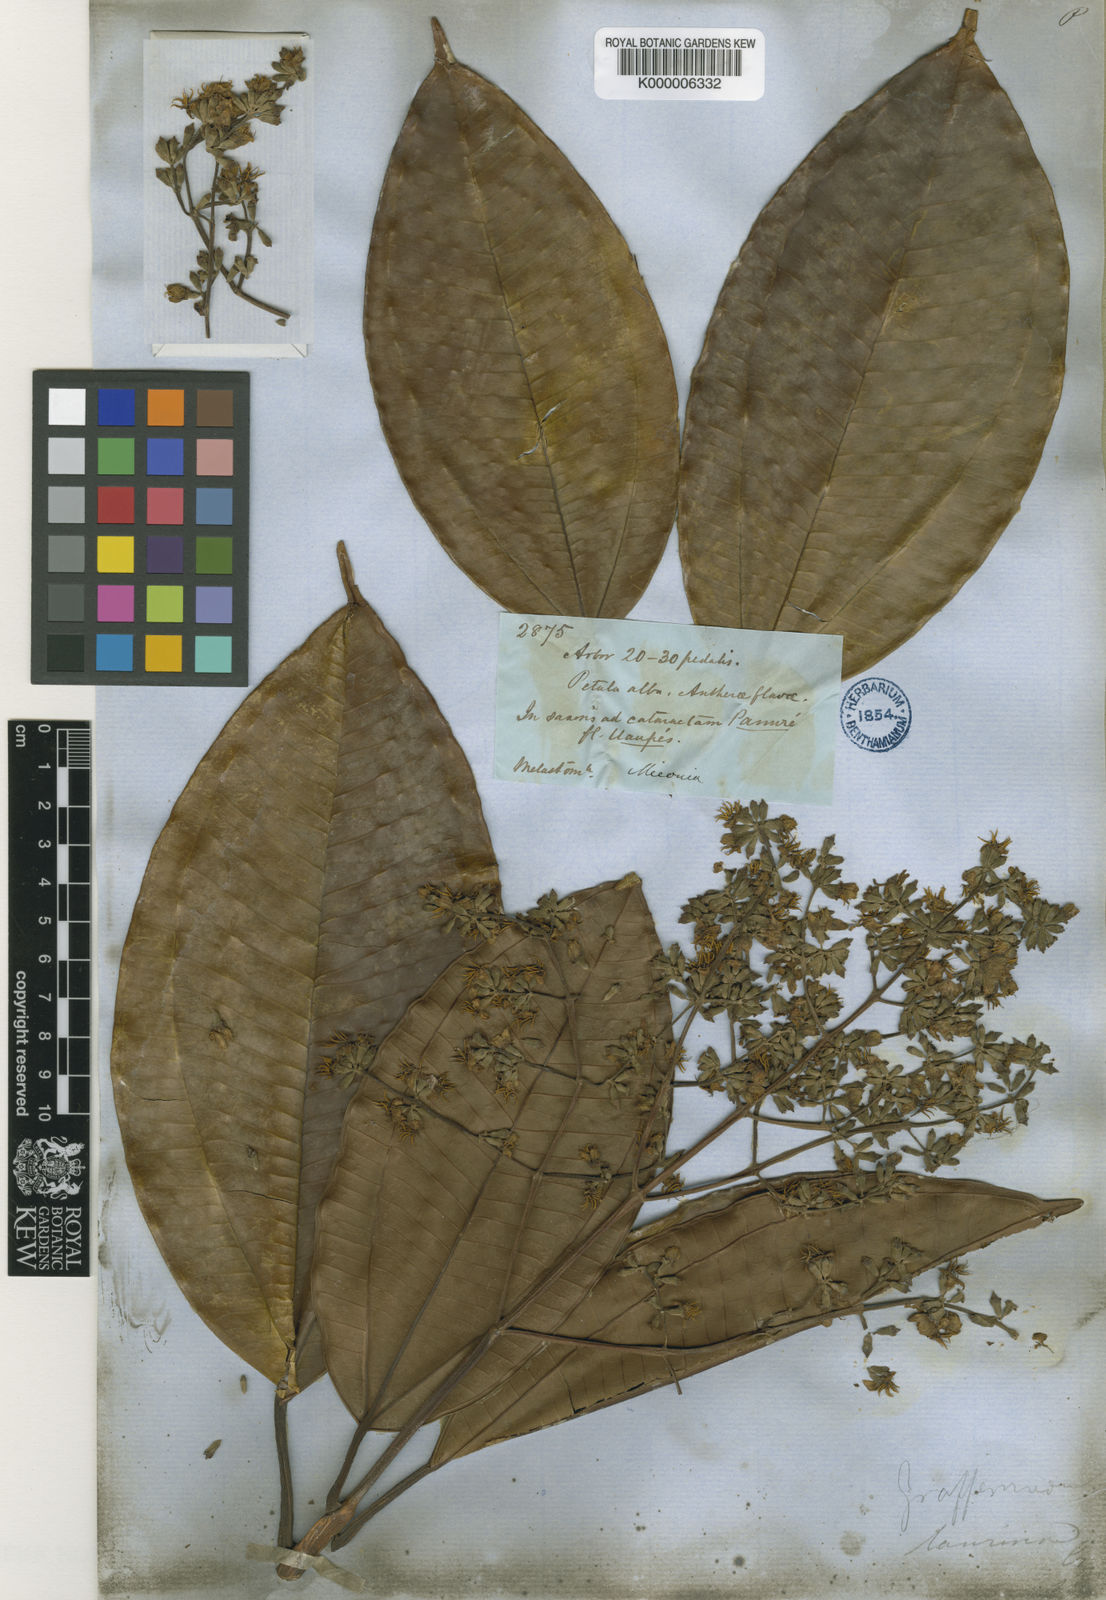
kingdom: Plantae
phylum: Tracheophyta
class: Magnoliopsida
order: Myrtales
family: Melastomataceae
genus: Graffenrieda
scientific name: Graffenrieda laurina
